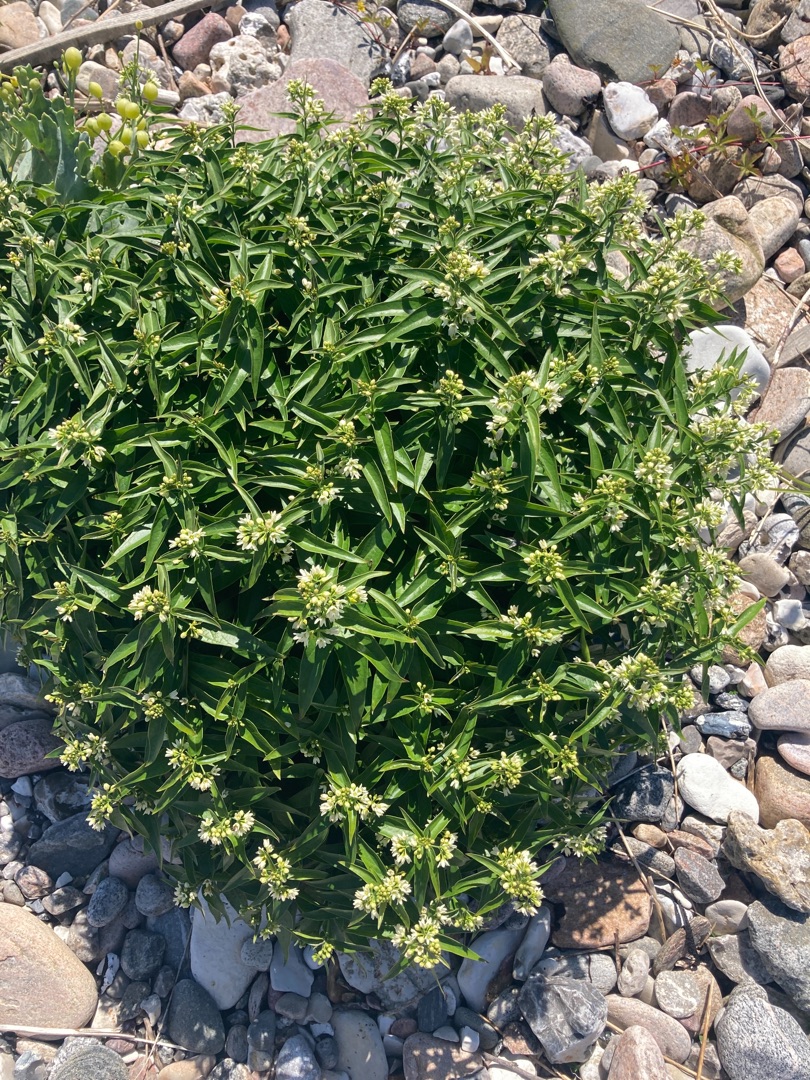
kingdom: Plantae
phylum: Tracheophyta
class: Magnoliopsida
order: Gentianales
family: Apocynaceae
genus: Vincetoxicum
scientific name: Vincetoxicum hirundinaria
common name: Svalerod
